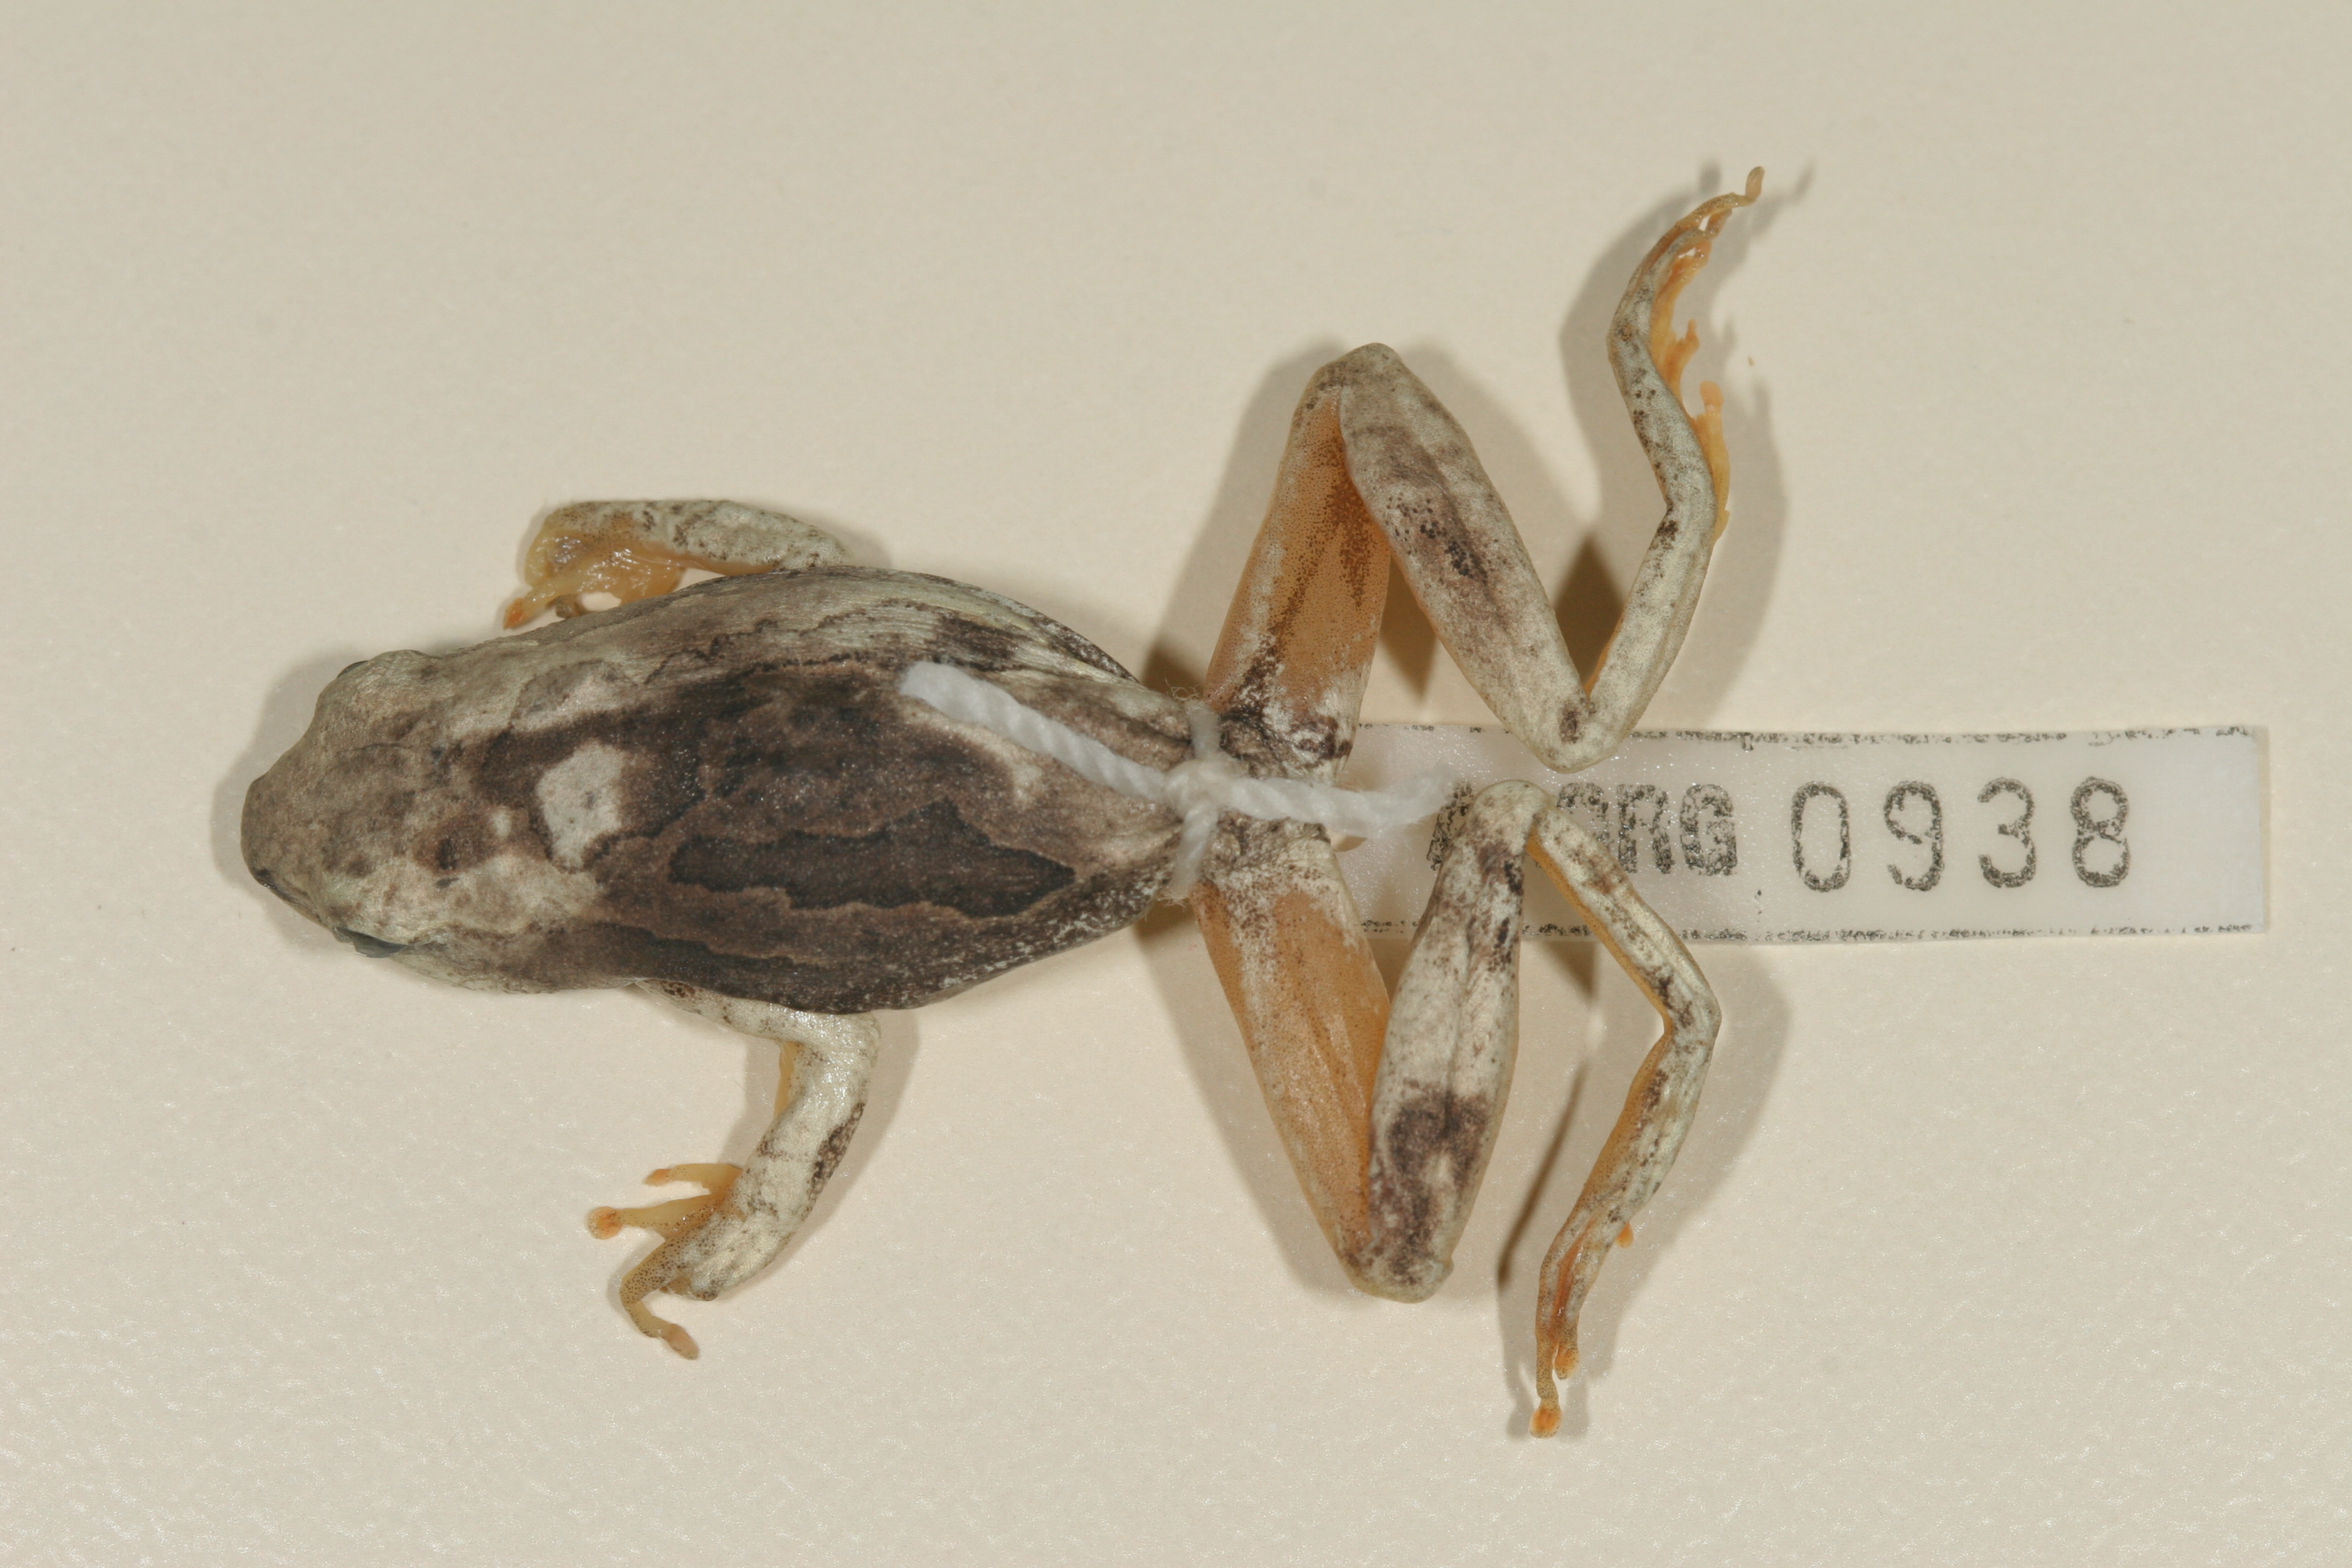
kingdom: Animalia
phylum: Chordata
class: Amphibia
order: Anura
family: Hyperoliidae
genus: Hyperolius
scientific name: Hyperolius parallelus
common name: Angolan reed frog
